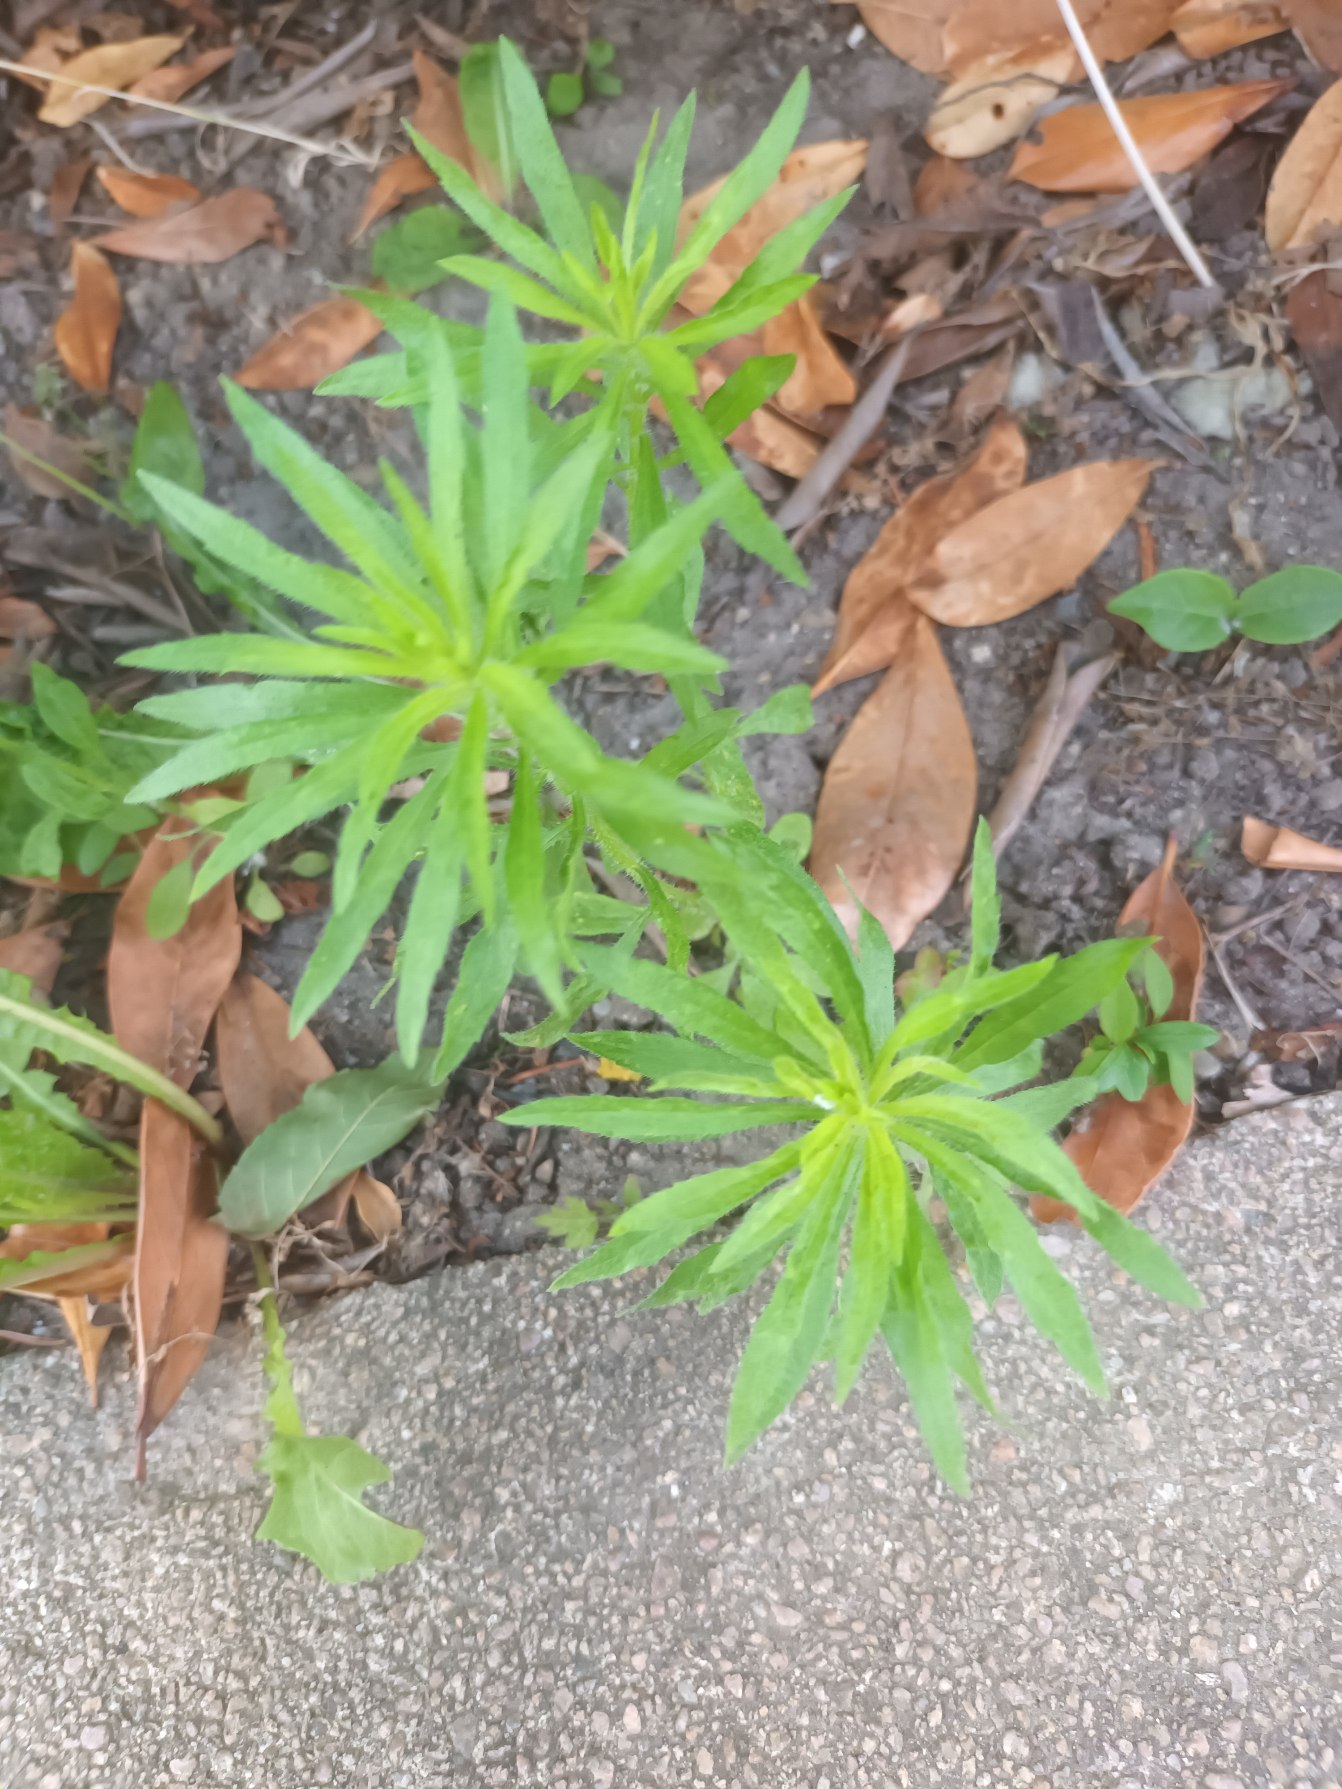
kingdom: Plantae
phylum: Tracheophyta
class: Magnoliopsida
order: Asterales
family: Asteraceae
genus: Erigeron
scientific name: Erigeron canadensis
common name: Kanadisk bakkestjerne
